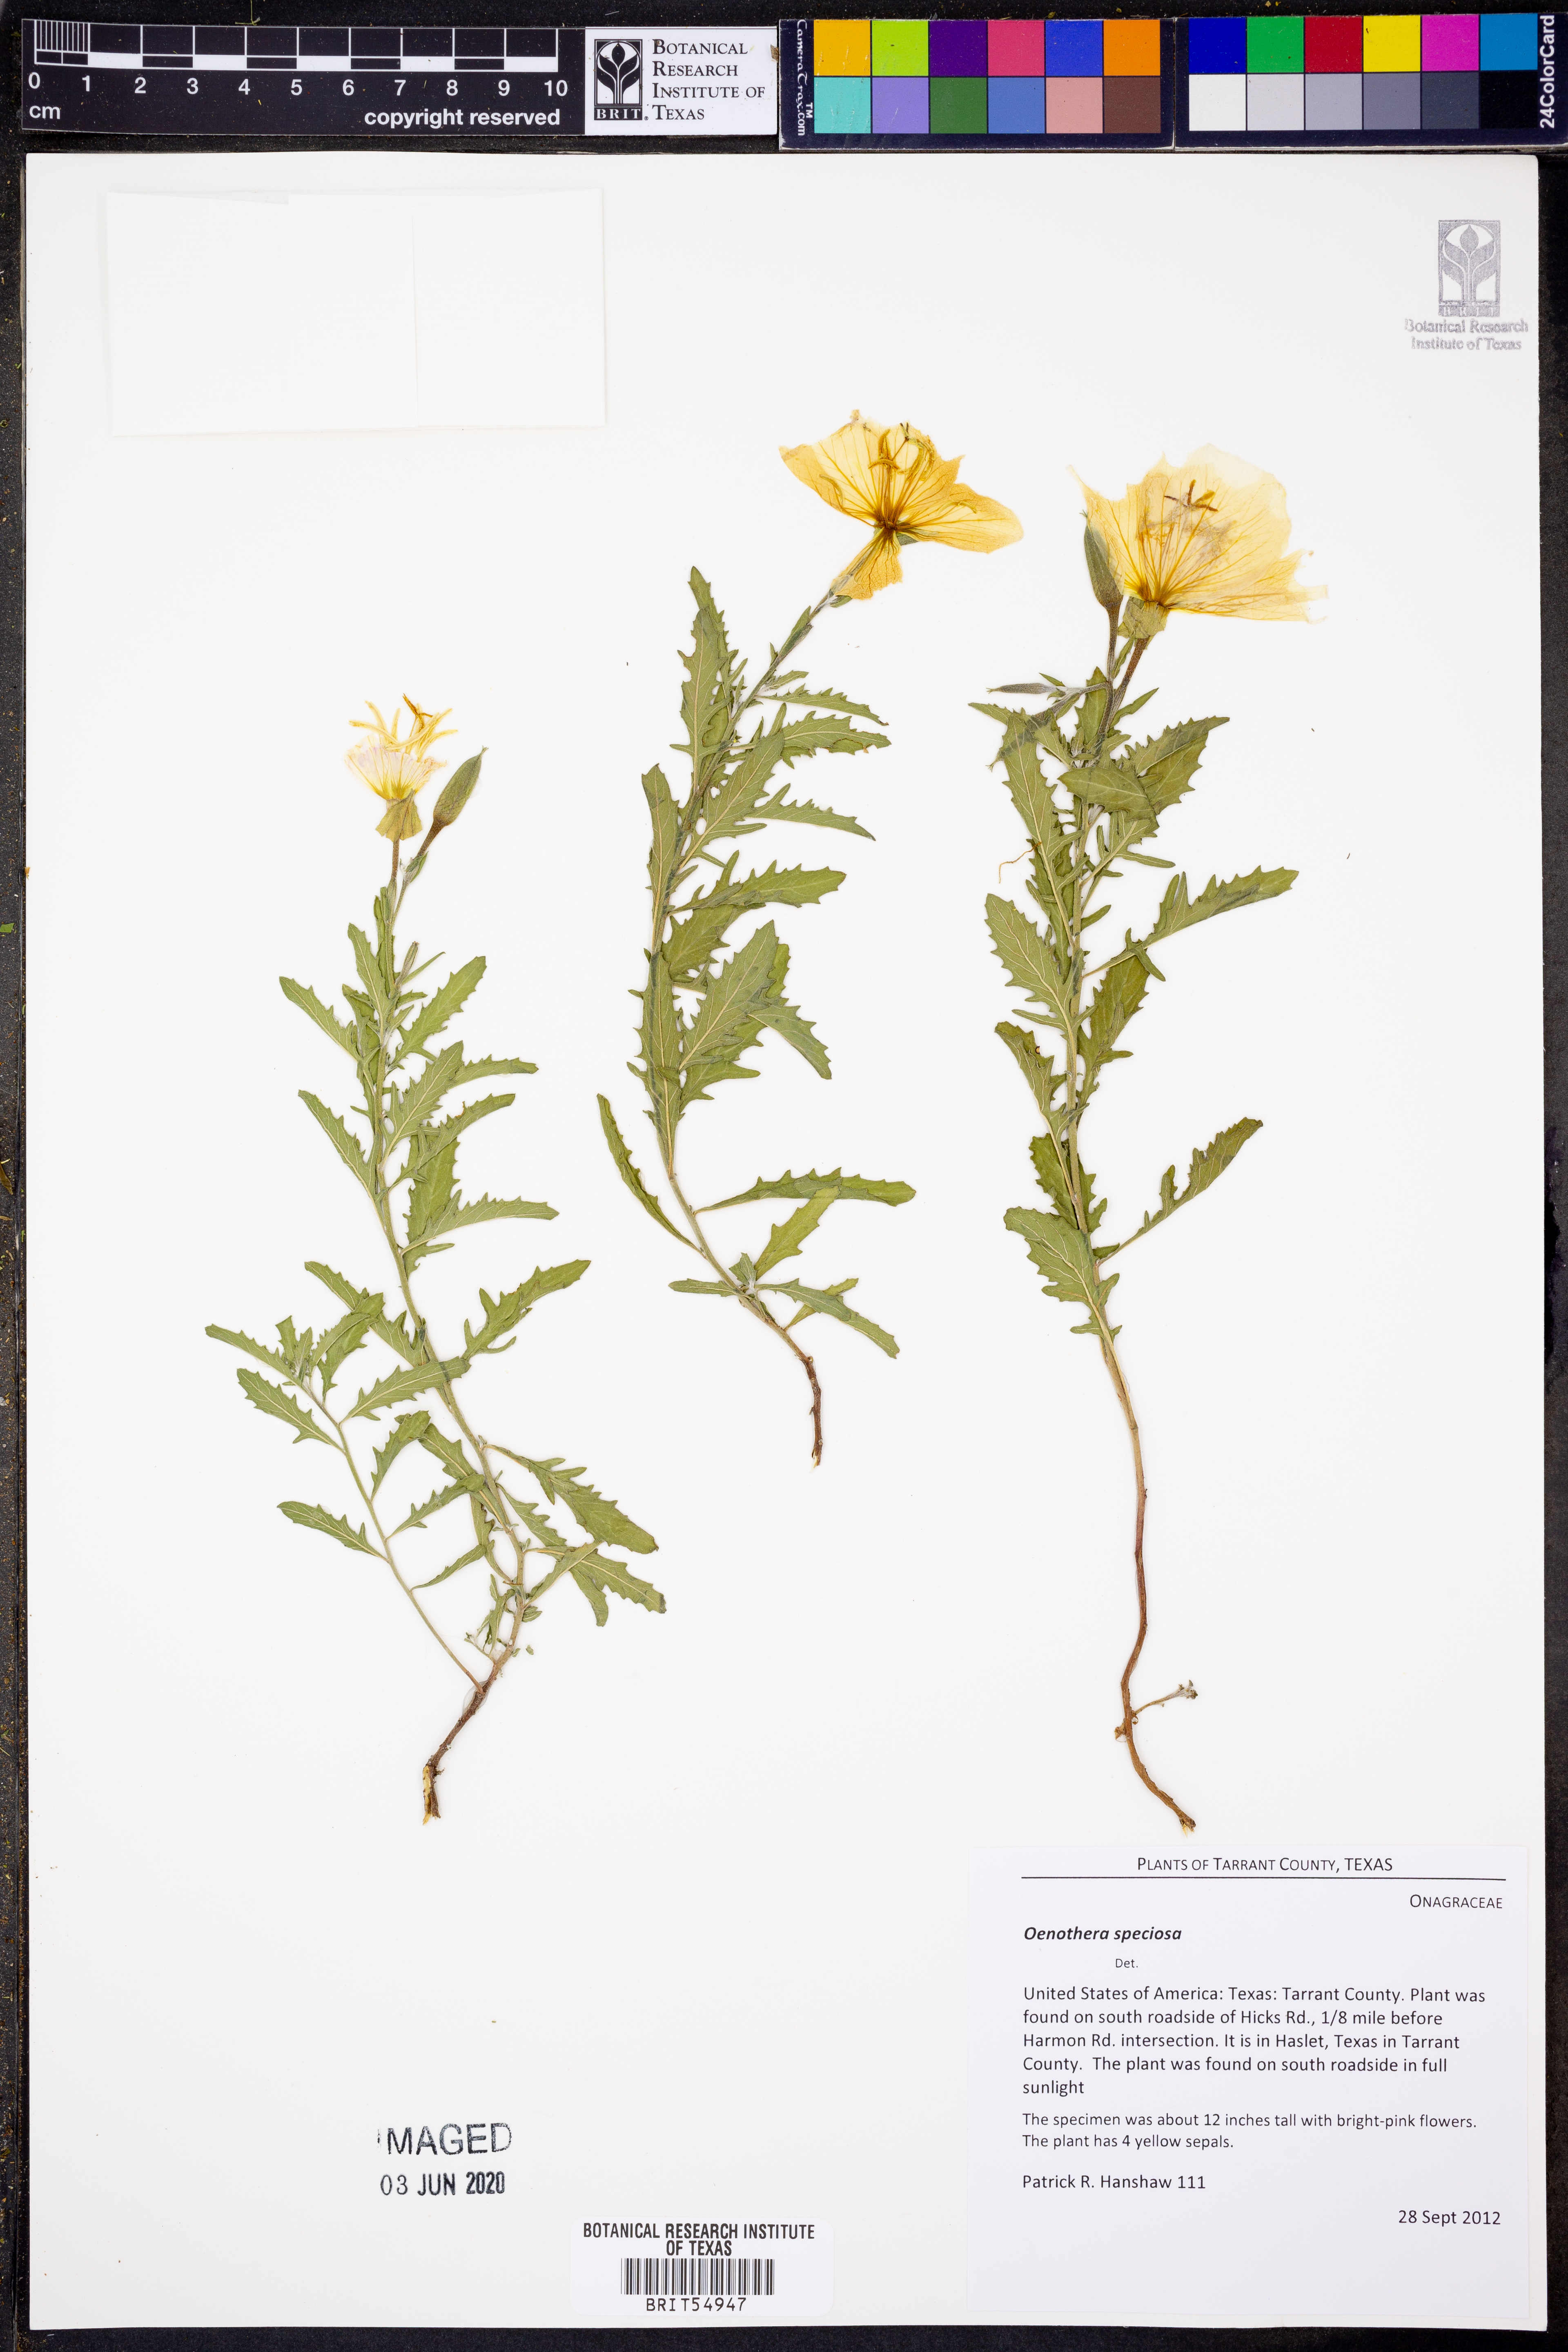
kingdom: Plantae
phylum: Tracheophyta
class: Magnoliopsida
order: Myrtales
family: Onagraceae
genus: Oenothera
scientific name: Oenothera speciosa
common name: White evening-primrose
